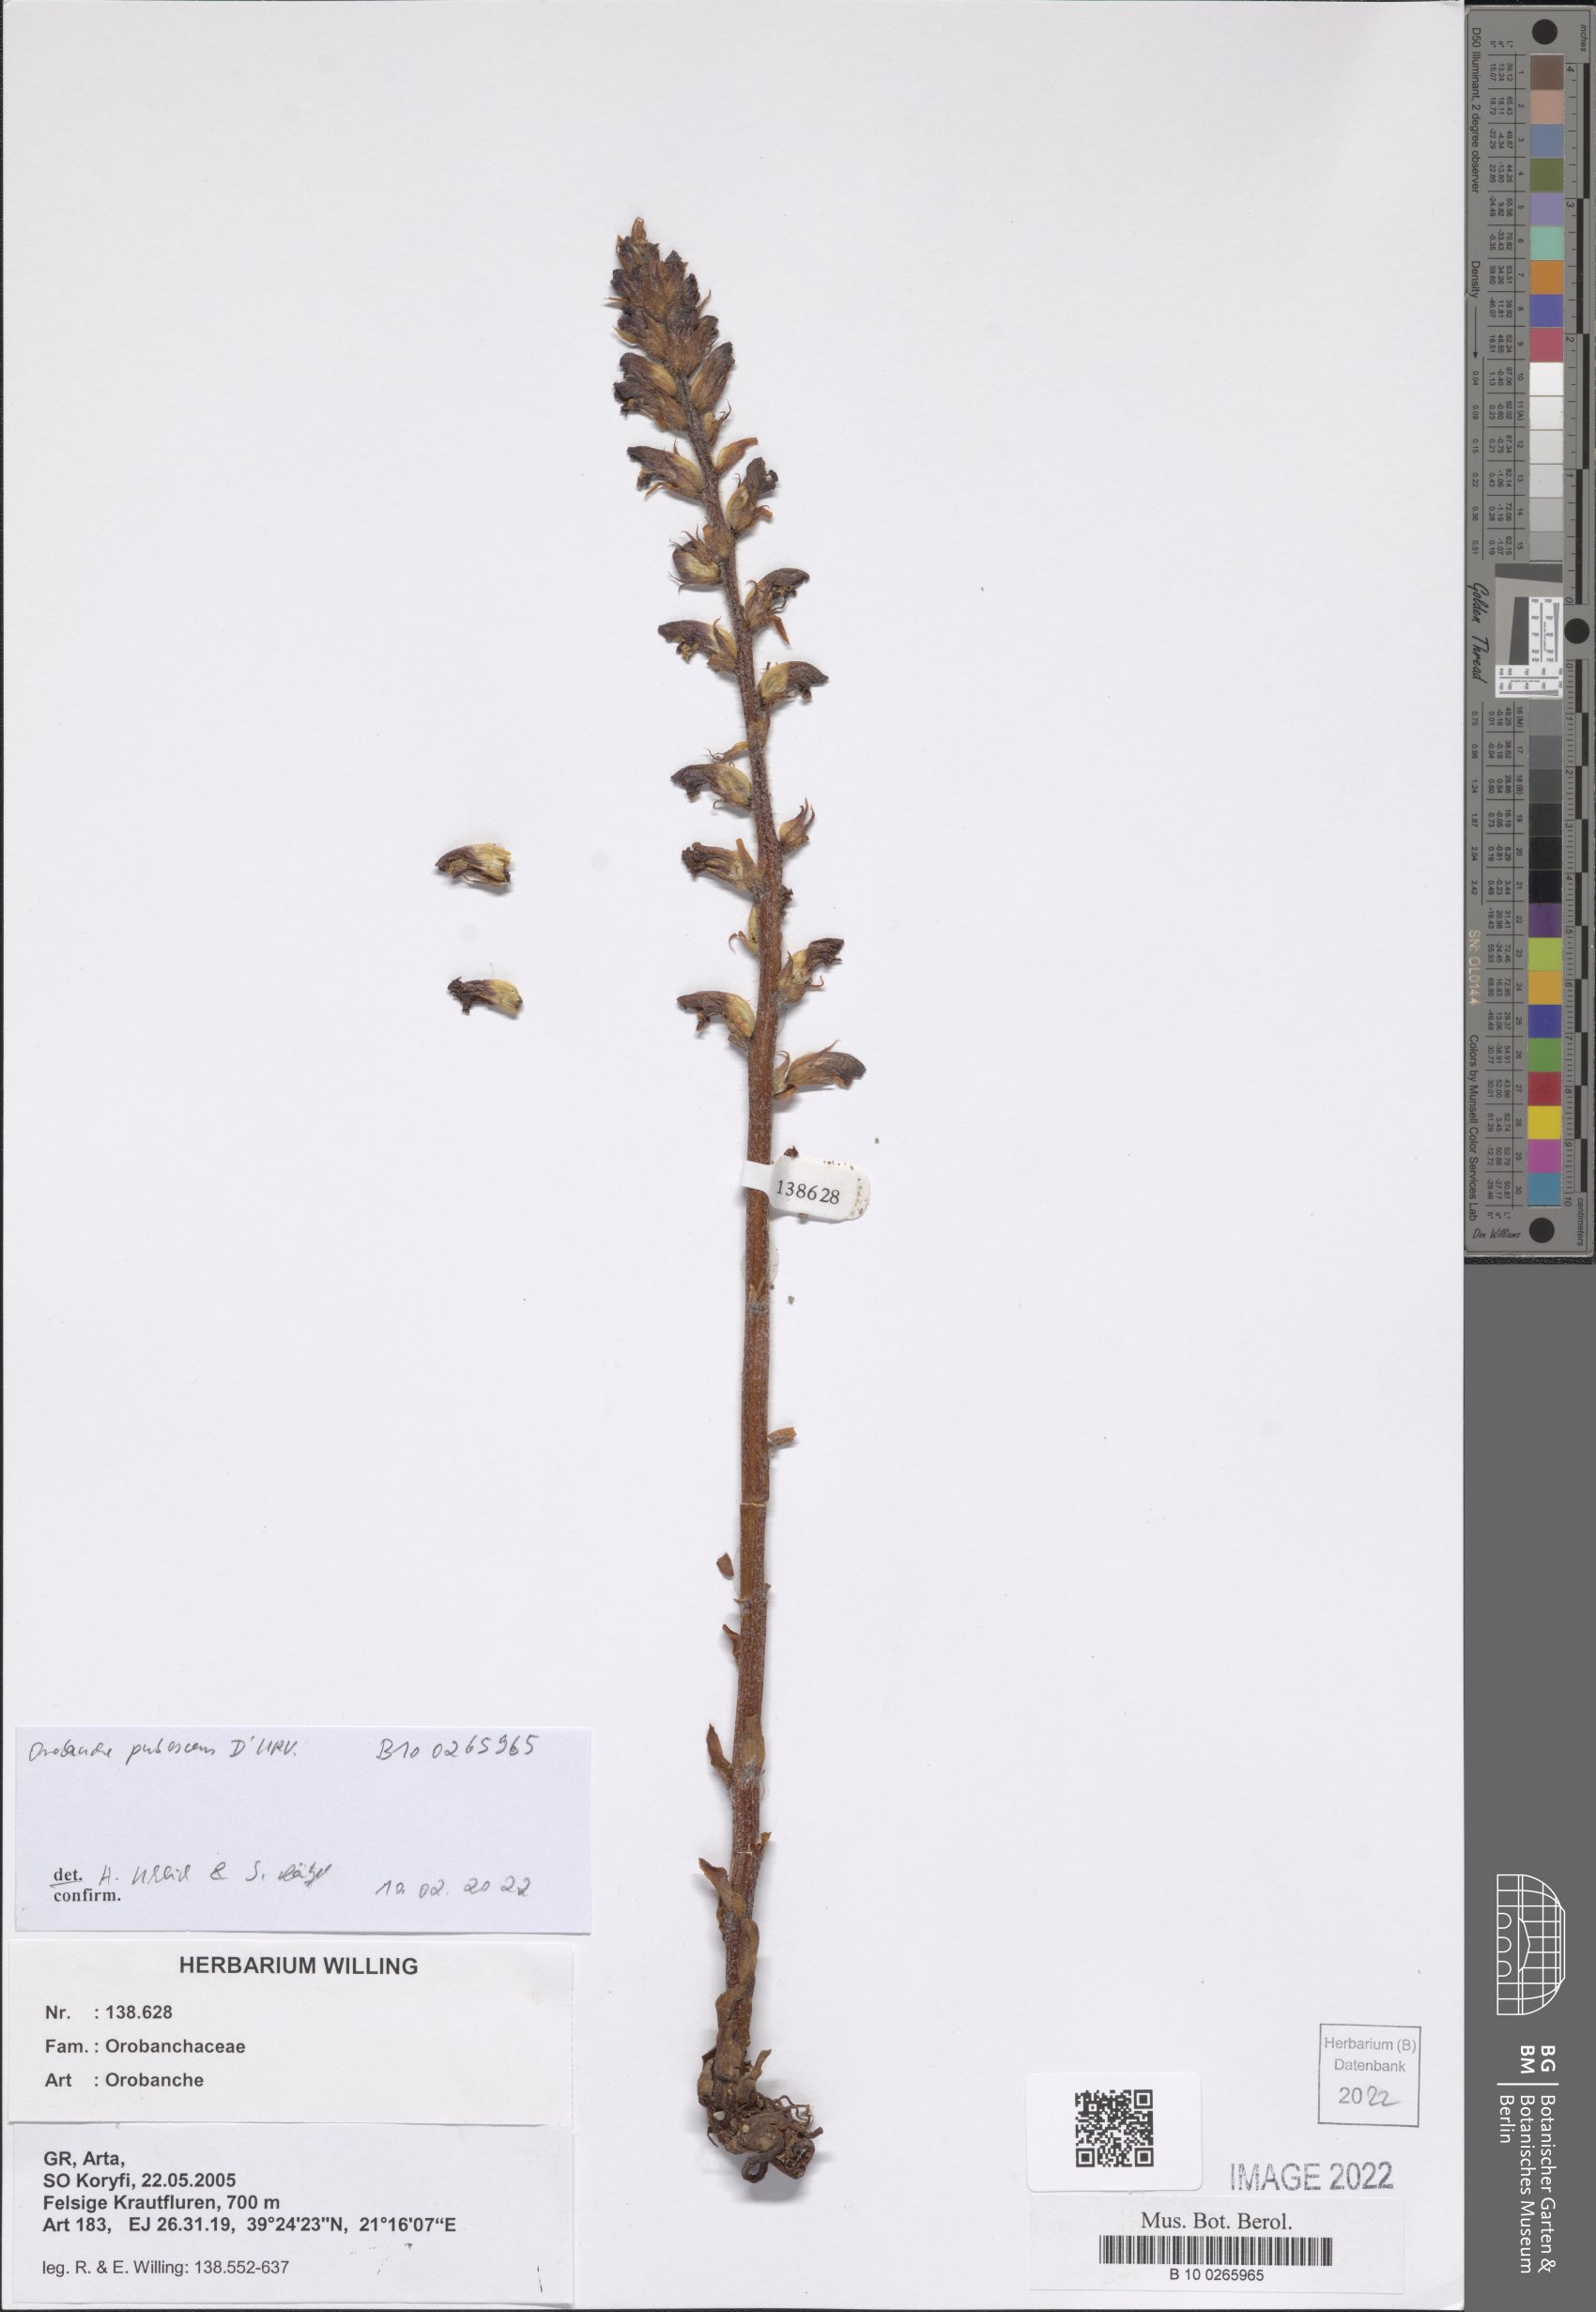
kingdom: Plantae
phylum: Tracheophyta
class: Magnoliopsida
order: Lamiales
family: Orobanchaceae
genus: Orobanche
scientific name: Orobanche pubescens
